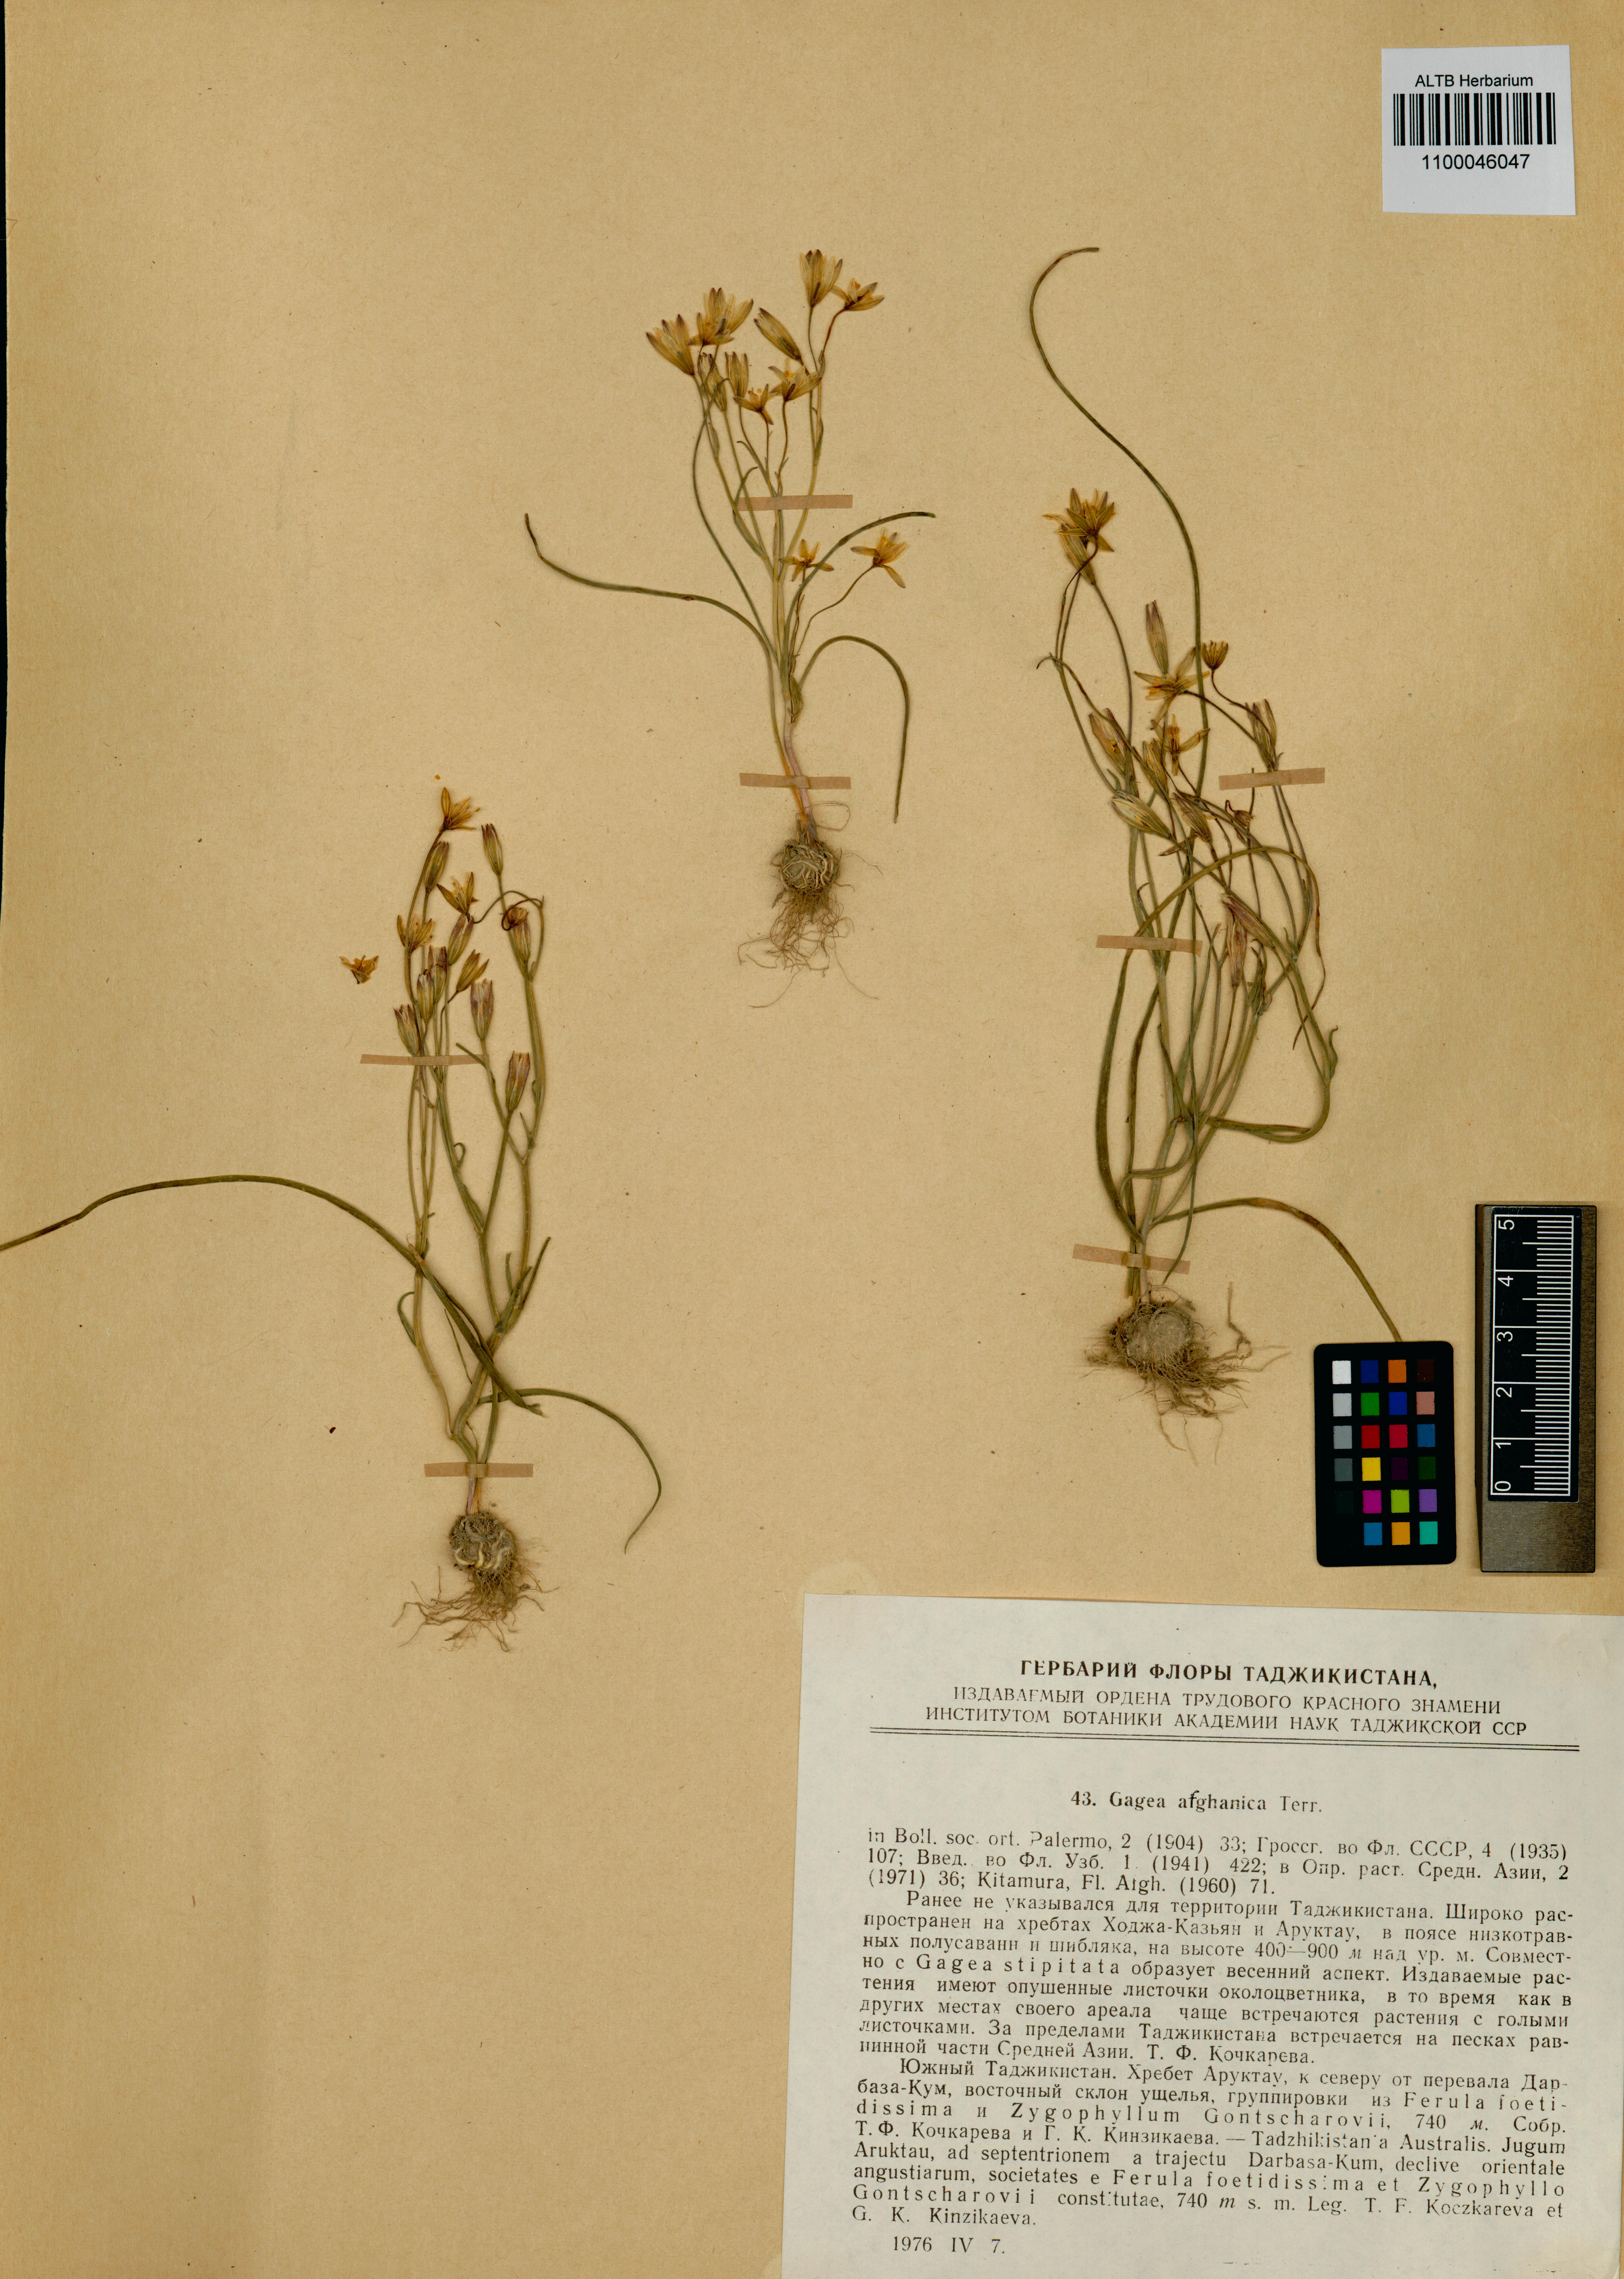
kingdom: Plantae
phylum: Tracheophyta
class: Liliopsida
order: Liliales
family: Liliaceae
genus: Gagea
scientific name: Gagea afghanica
